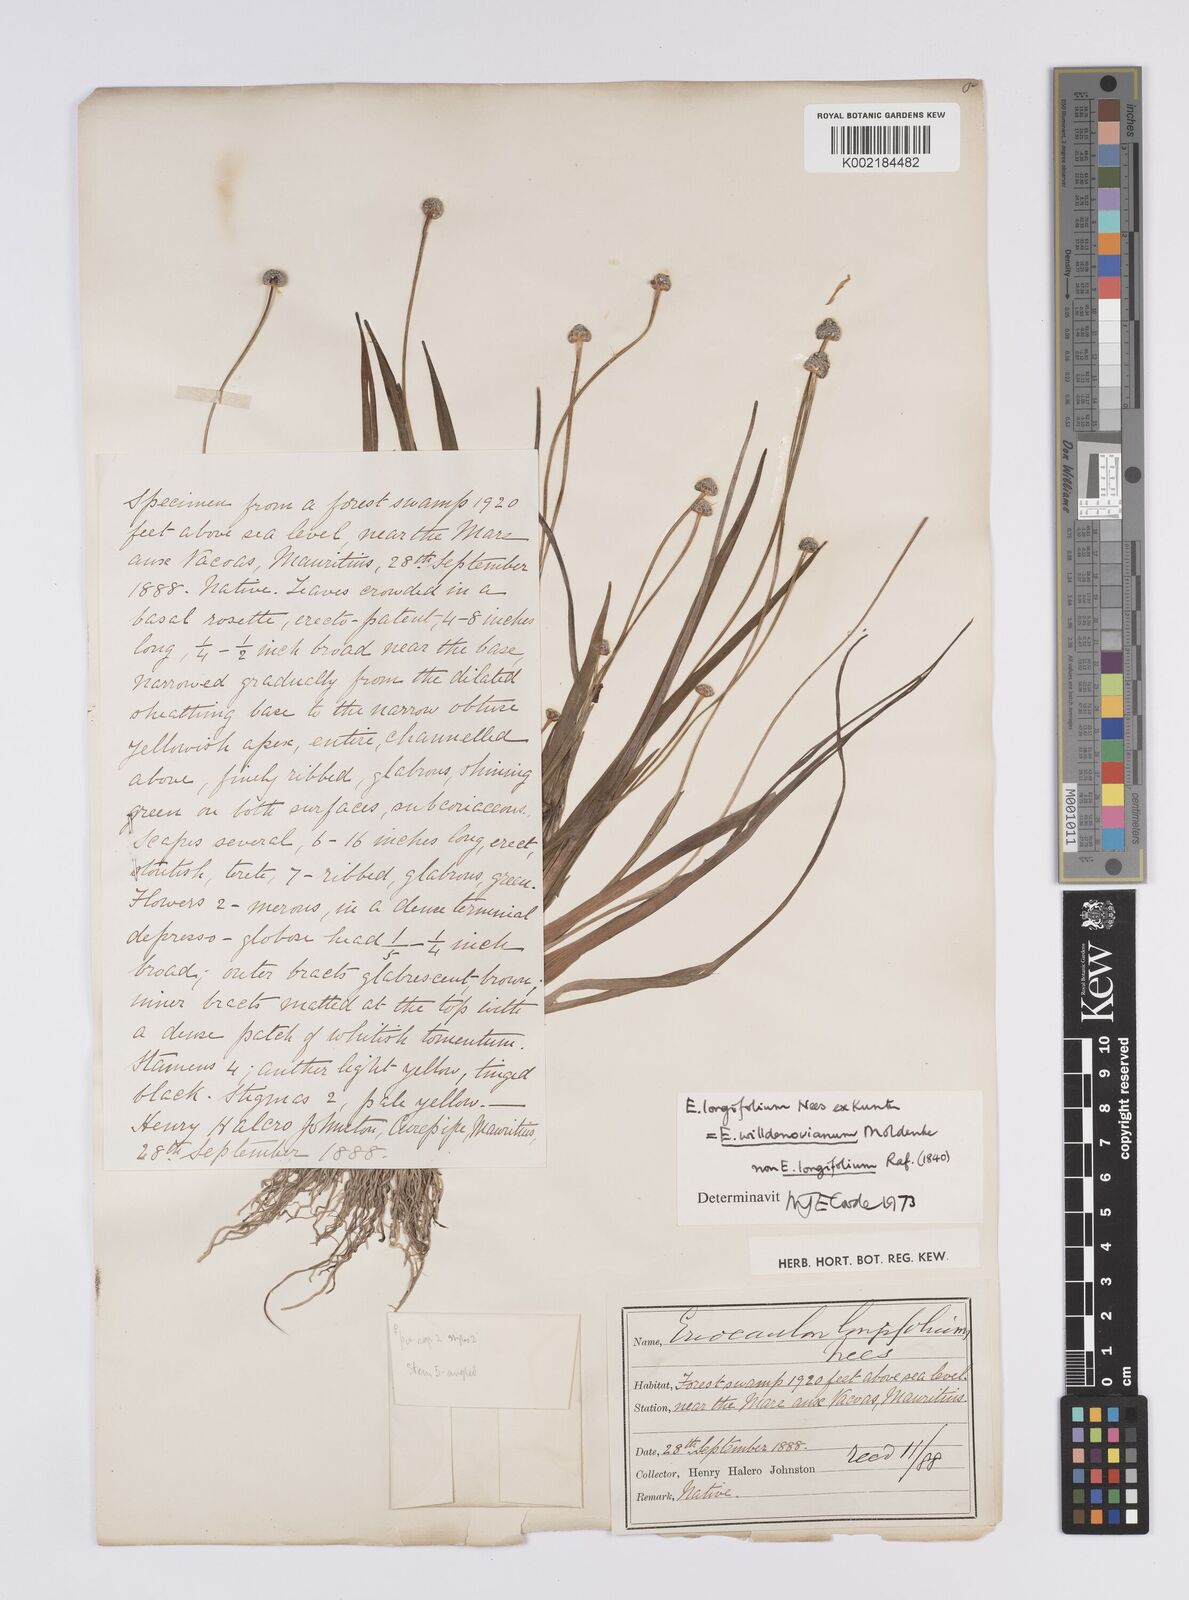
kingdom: Plantae
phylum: Tracheophyta
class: Liliopsida
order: Poales
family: Eriocaulaceae
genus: Eriocaulon
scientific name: Eriocaulon willdenovianum
